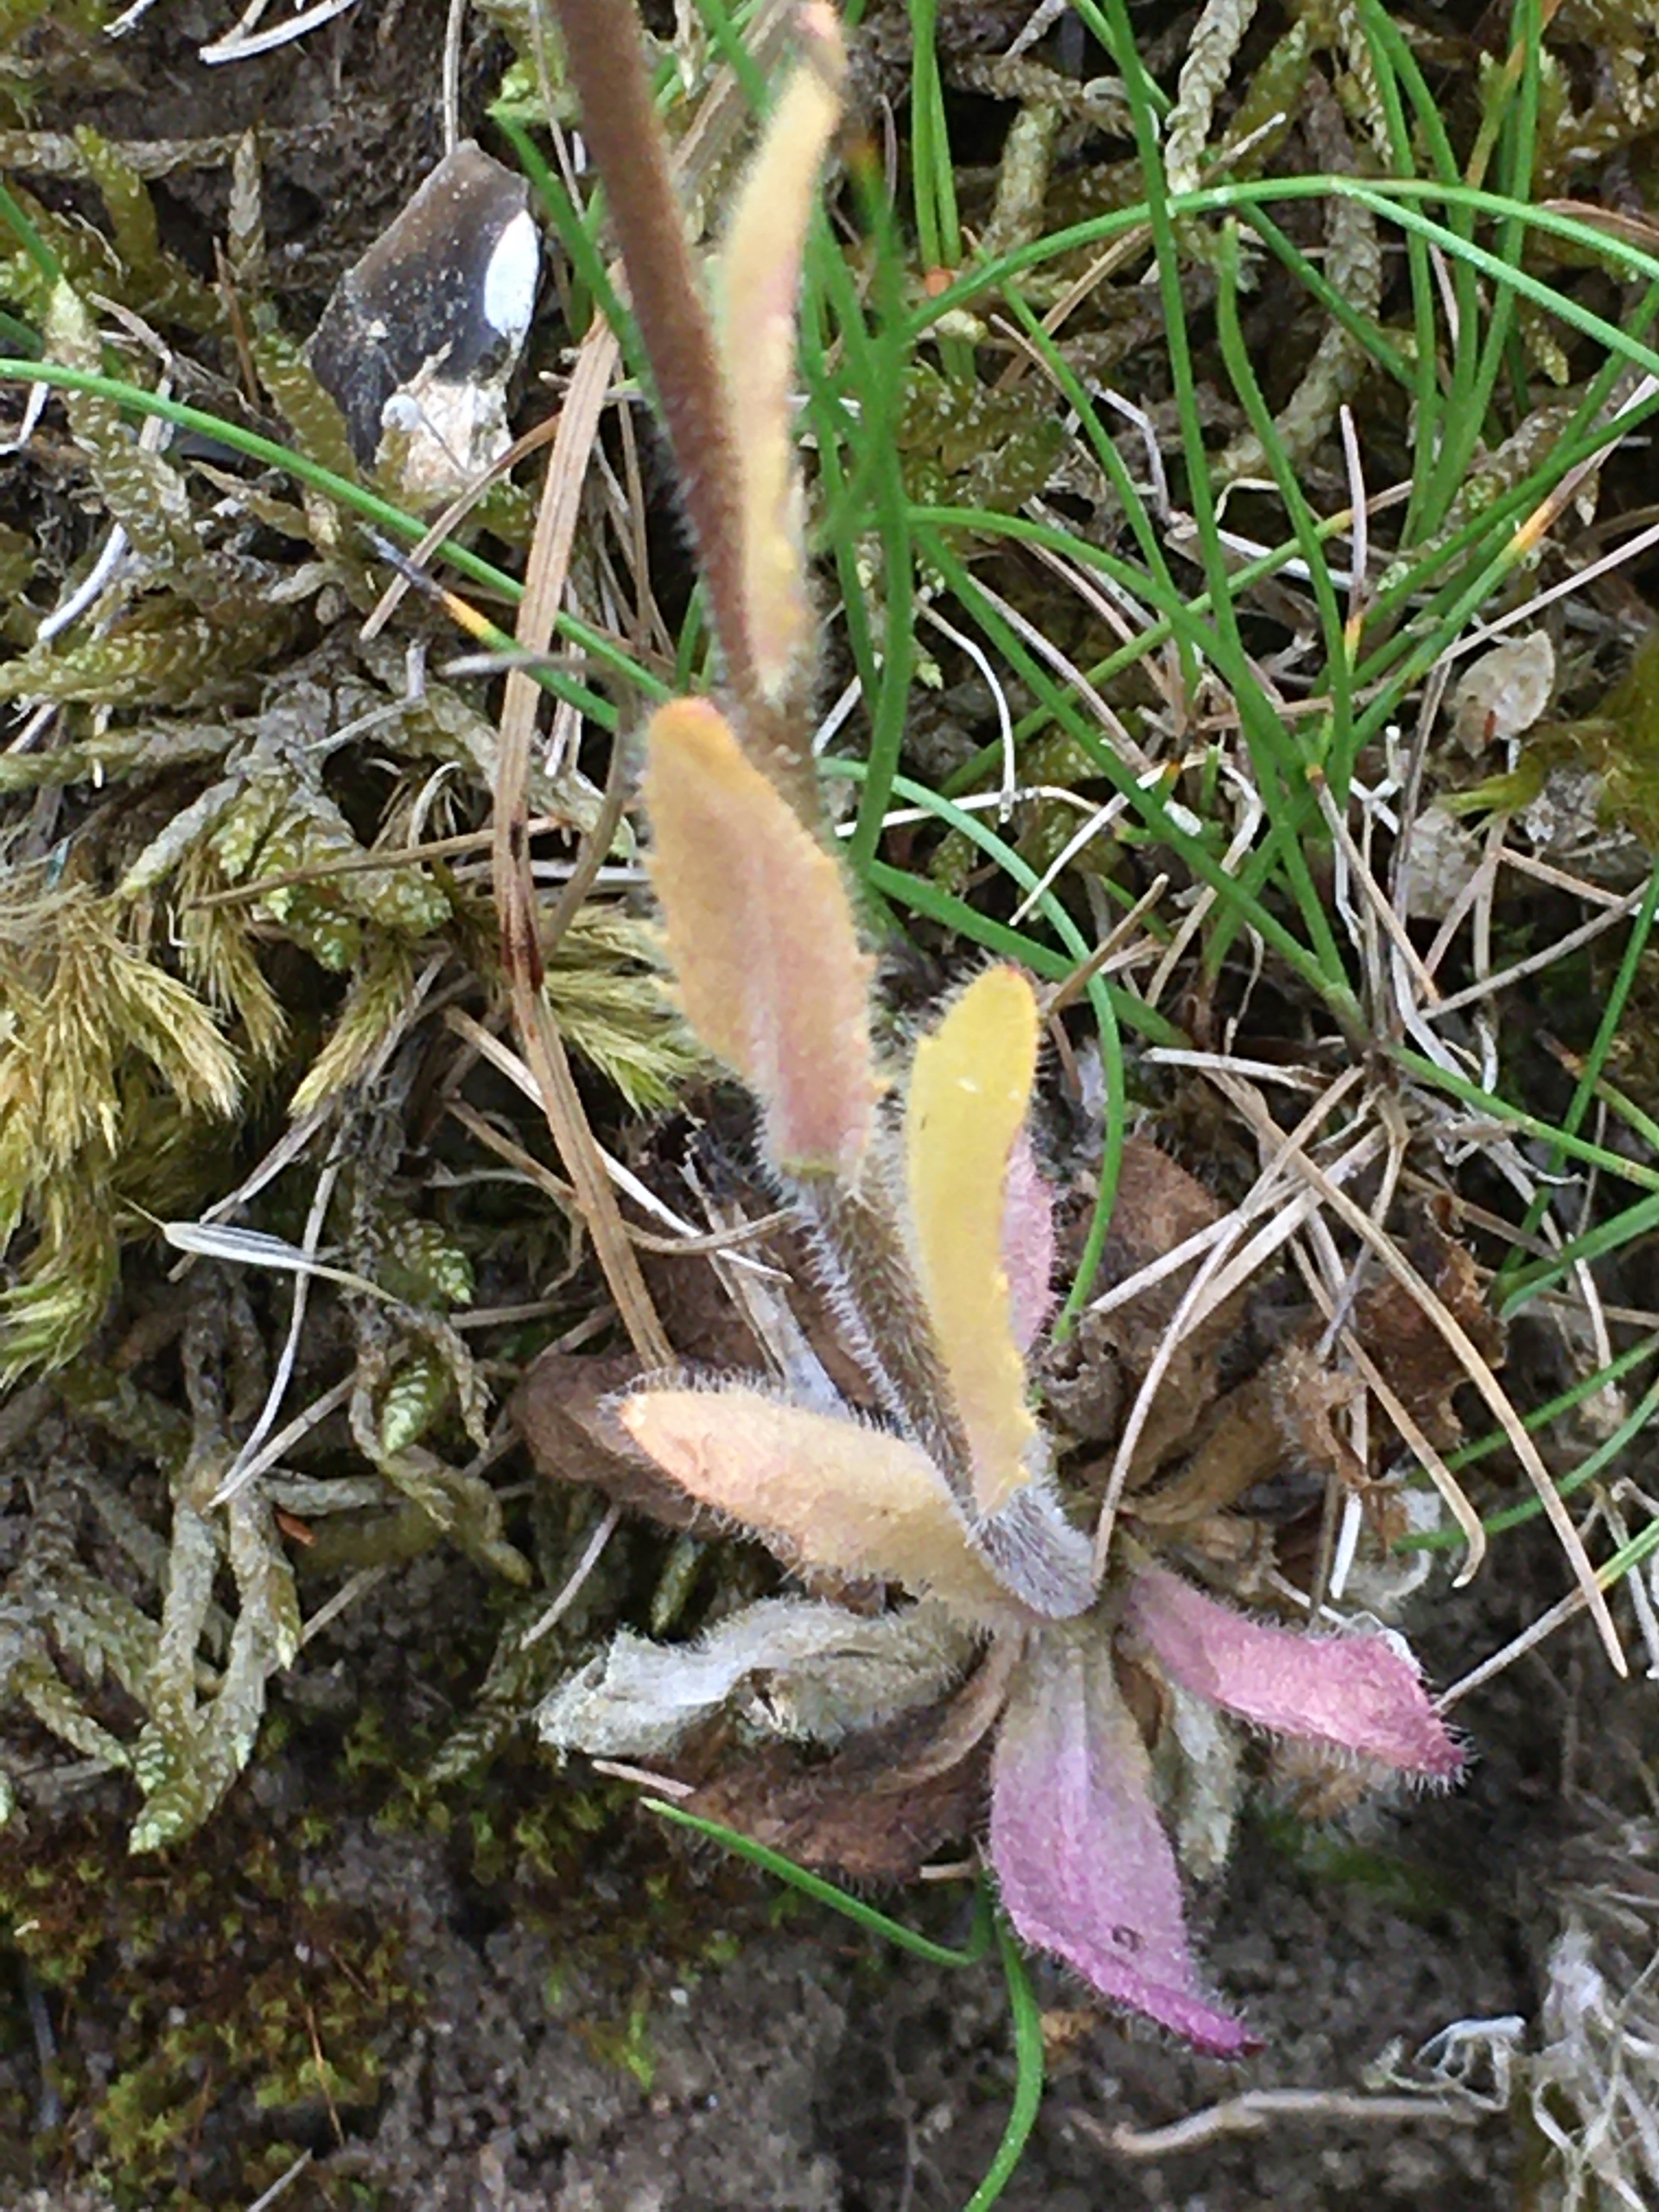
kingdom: Plantae
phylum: Tracheophyta
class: Magnoliopsida
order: Brassicales
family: Brassicaceae
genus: Arabis
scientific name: Arabis hirsuta
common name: Stivhåret kalkkarse
